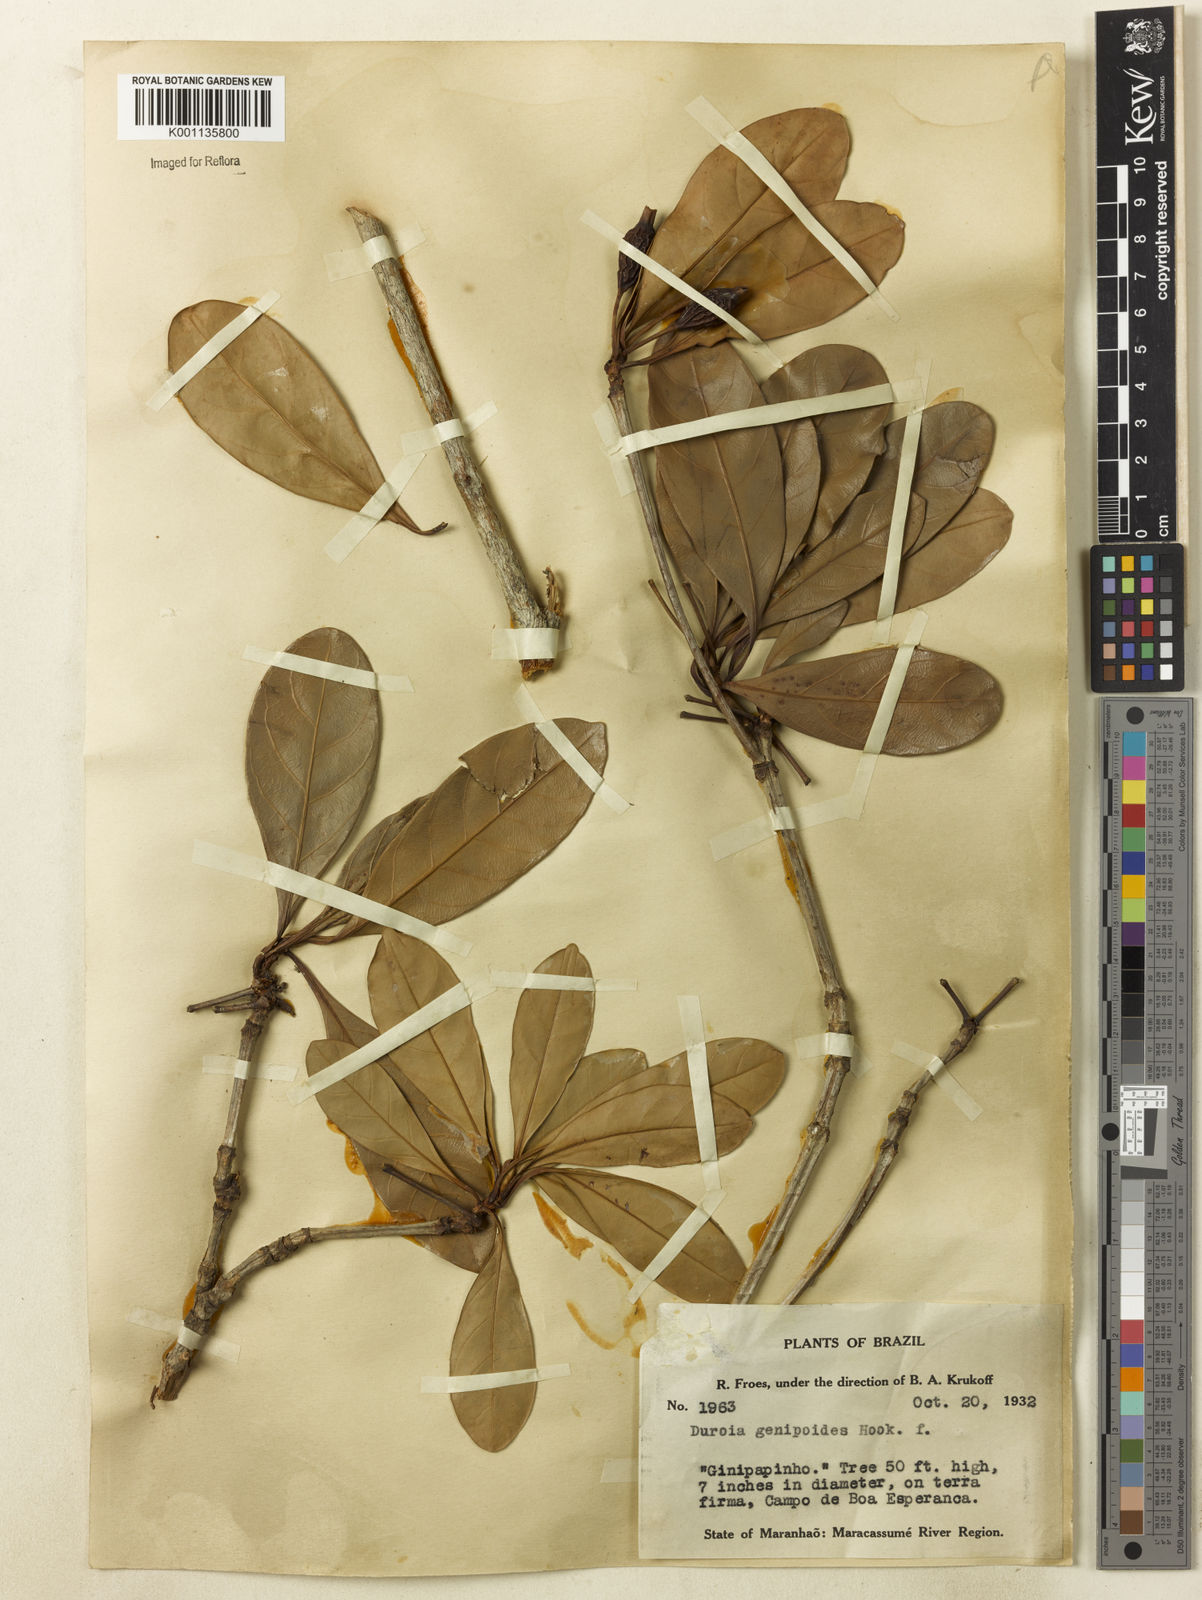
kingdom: Plantae
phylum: Tracheophyta
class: Magnoliopsida
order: Gentianales
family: Rubiaceae
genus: Duroia
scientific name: Duroia genipoides
